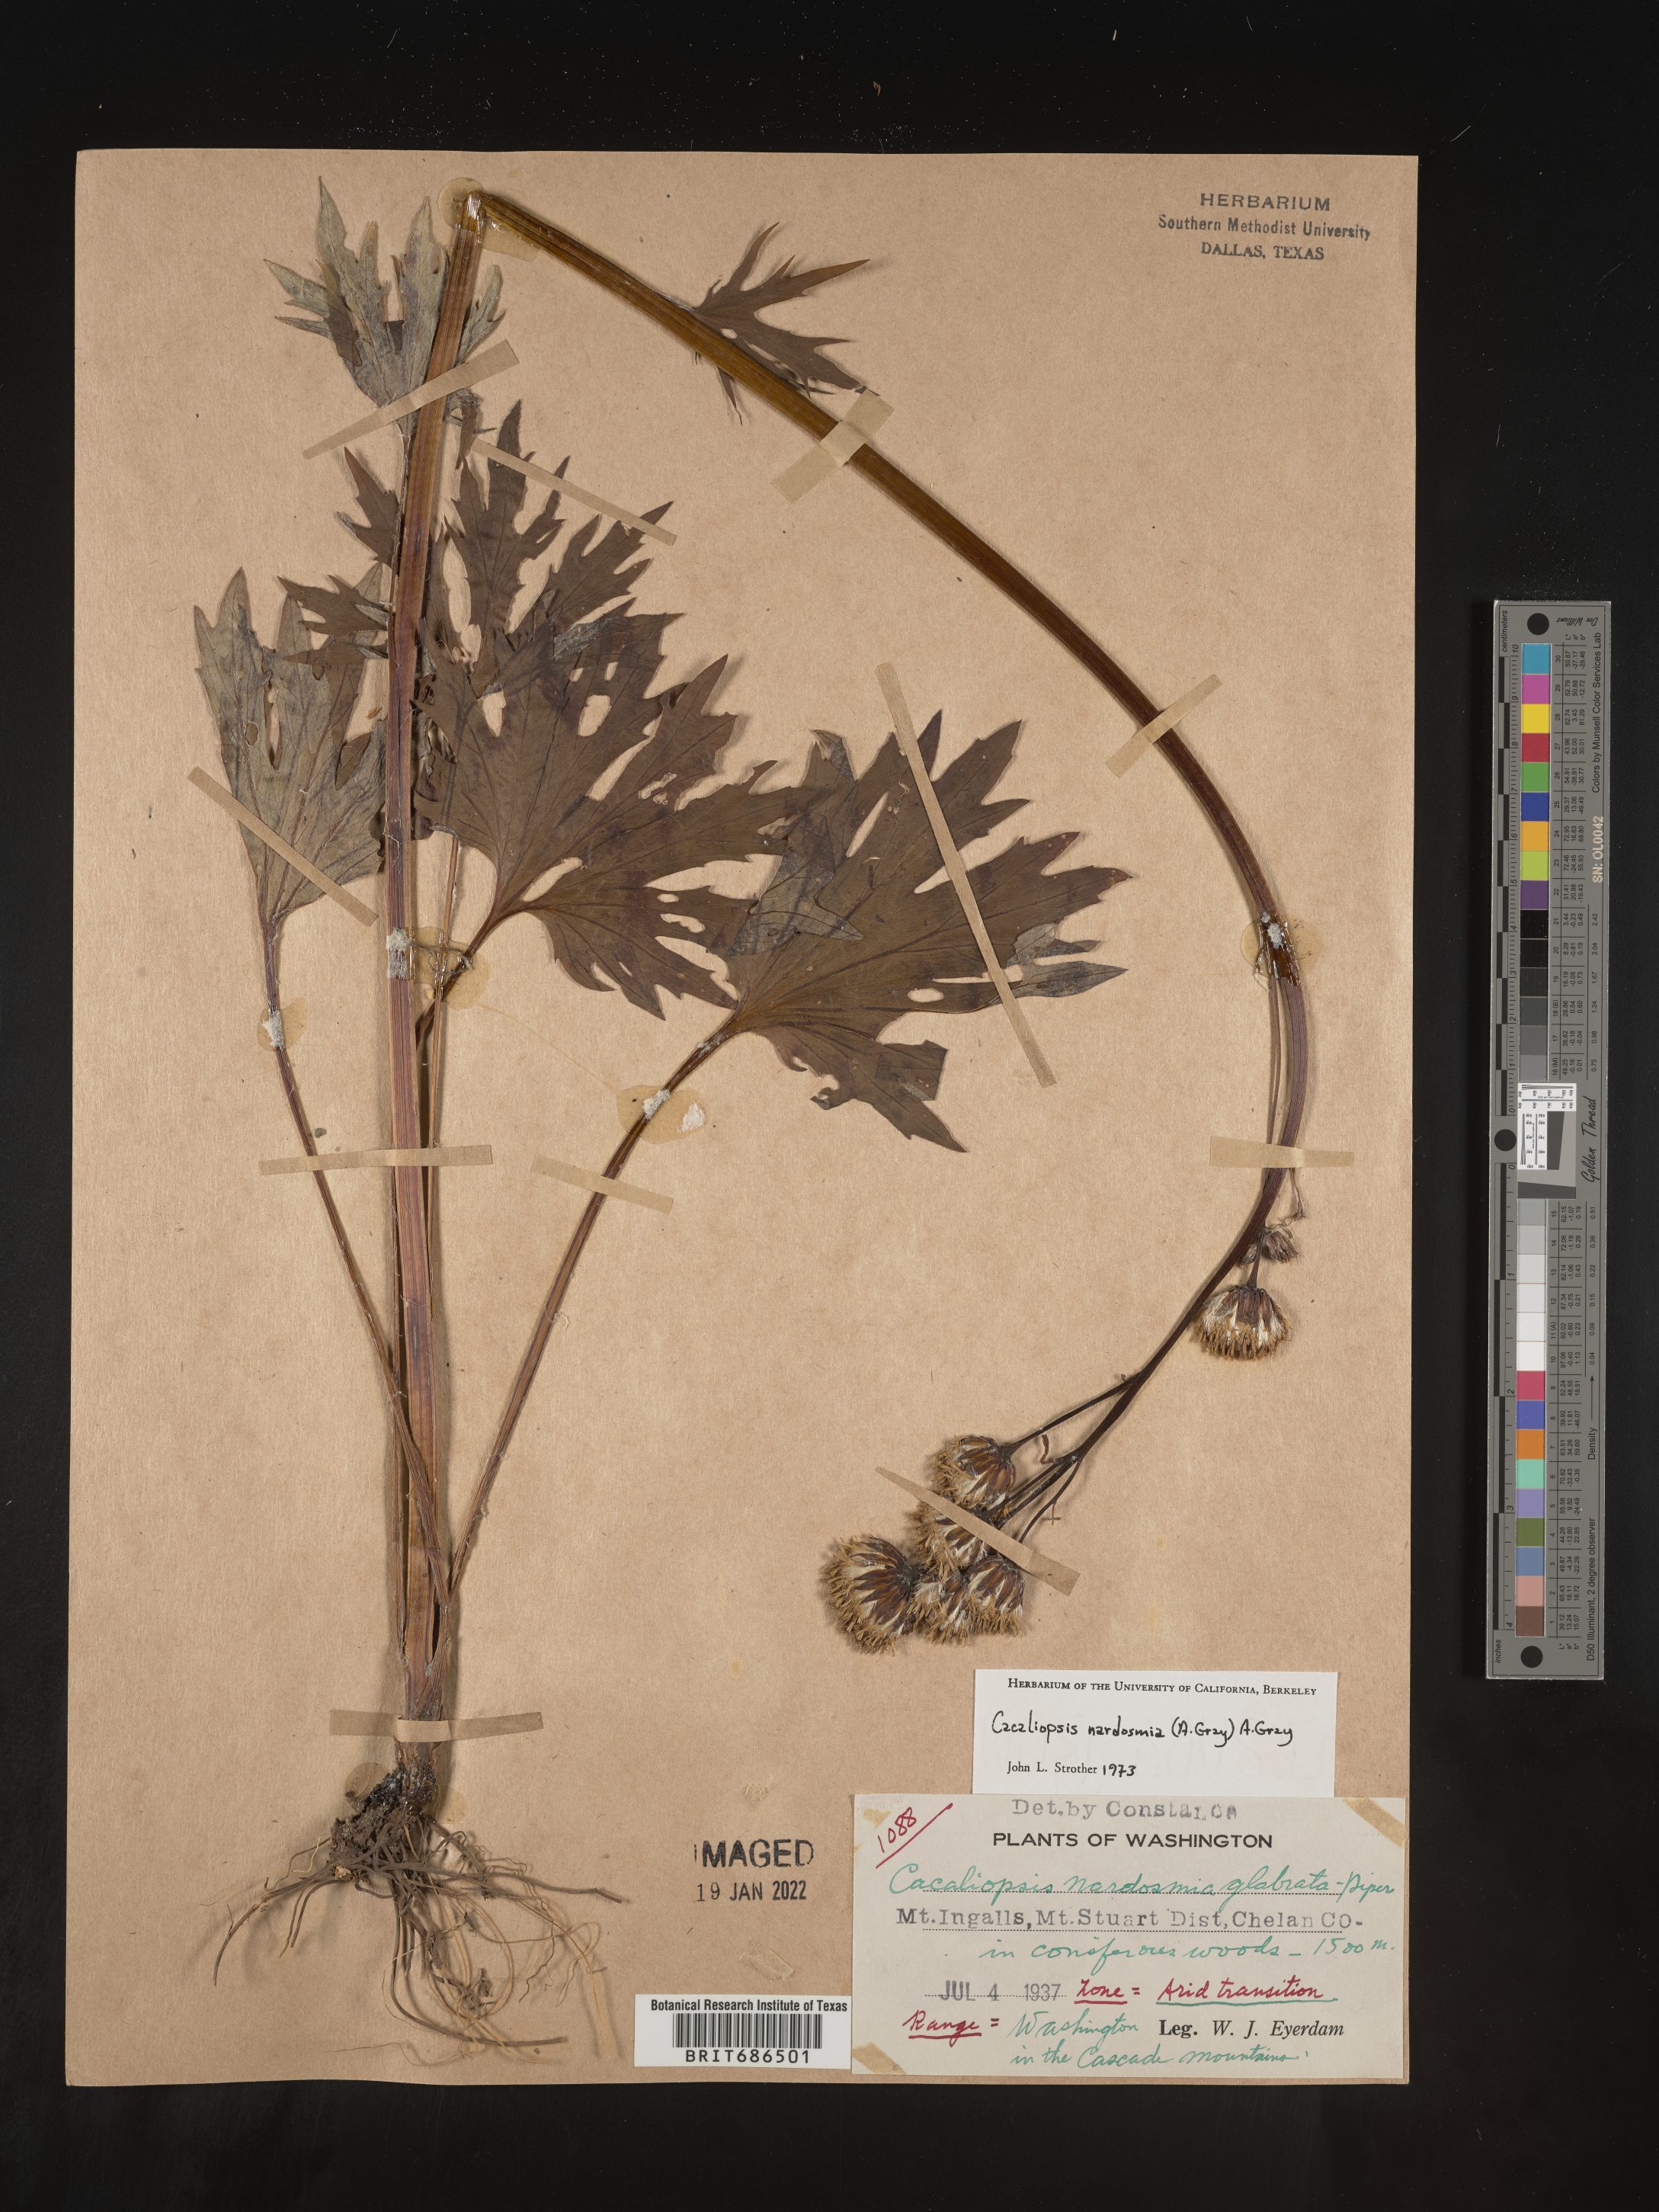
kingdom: Plantae
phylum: Tracheophyta
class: Magnoliopsida
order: Asterales
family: Asteraceae
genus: Cacaliopsis
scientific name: Cacaliopsis
